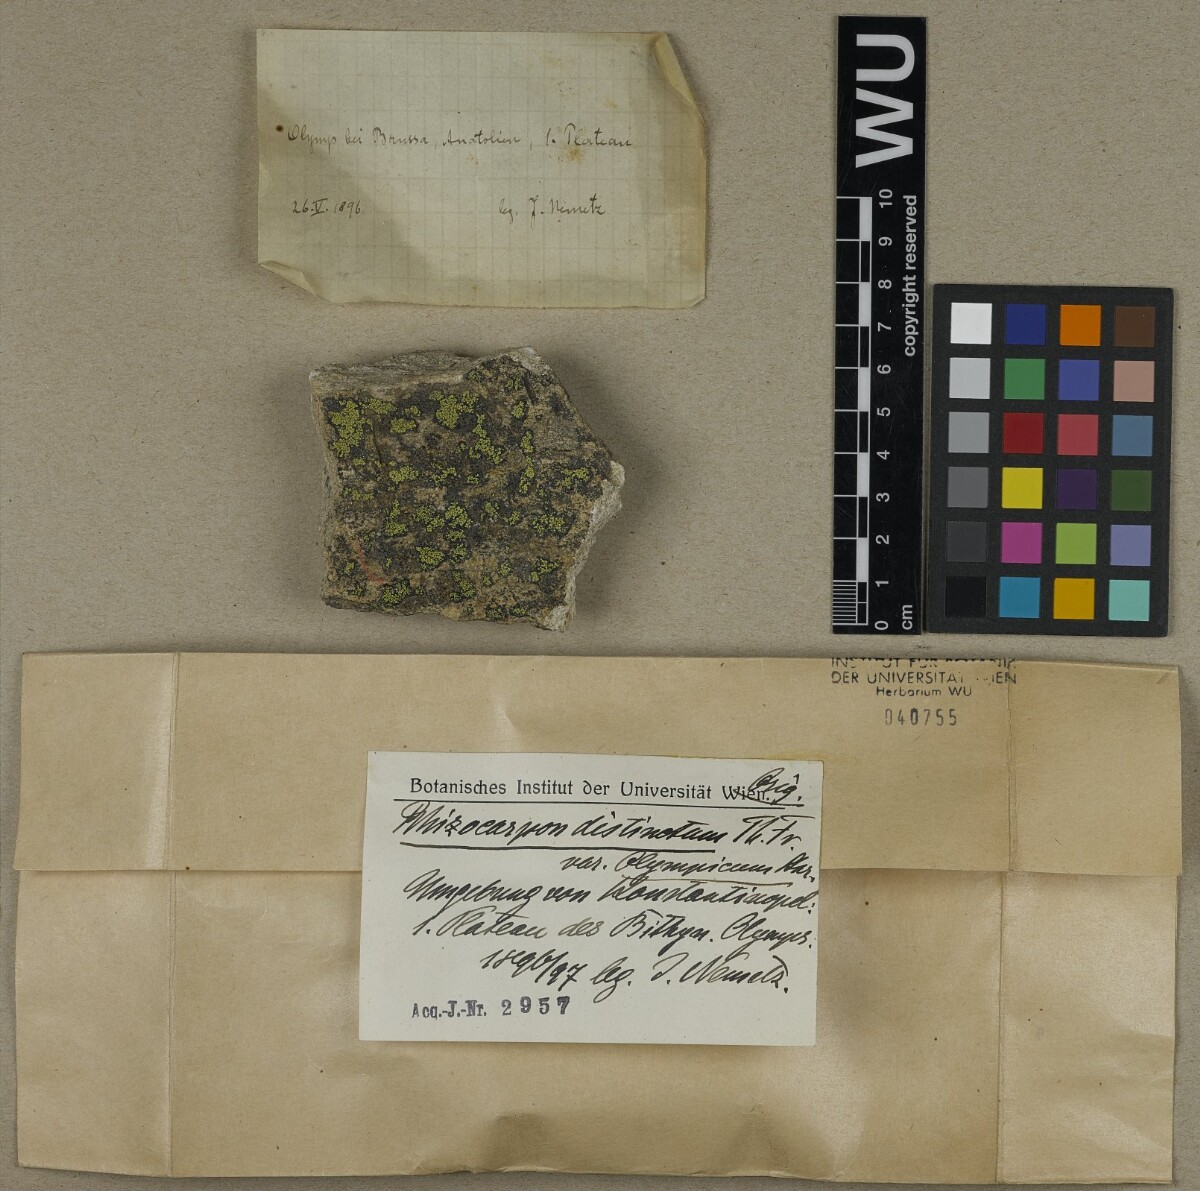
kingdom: Fungi
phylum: Ascomycota
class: Lecanoromycetes
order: Rhizocarpales
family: Rhizocarpaceae
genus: Rhizocarpon
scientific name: Rhizocarpon distinctum
